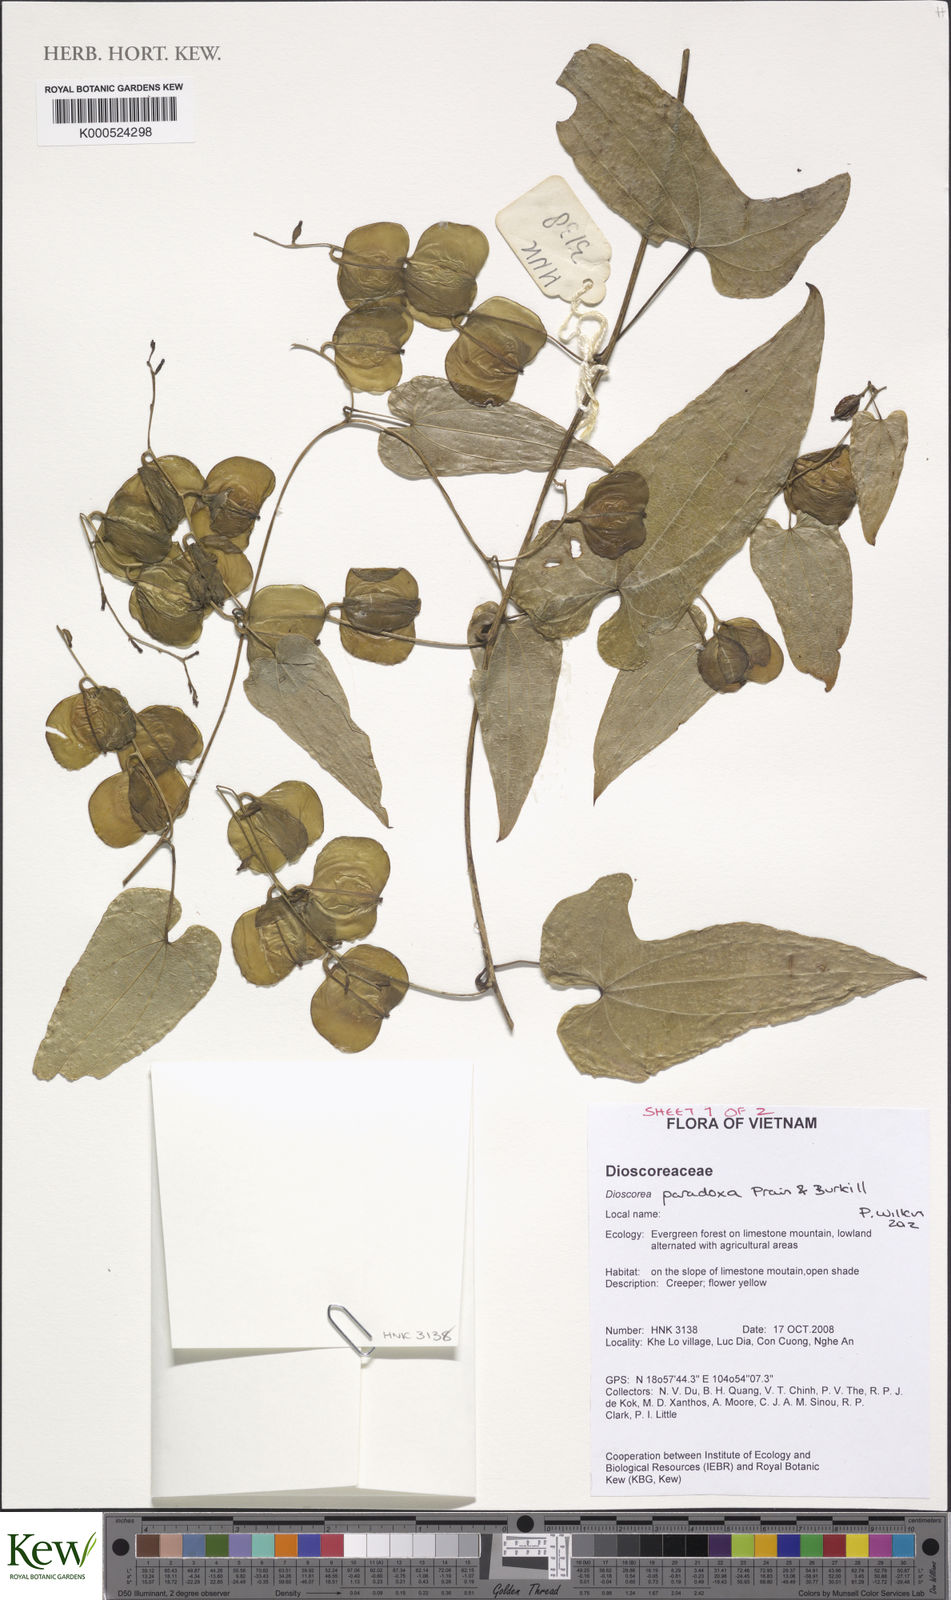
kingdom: Plantae
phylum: Tracheophyta
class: Liliopsida
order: Dioscoreales
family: Dioscoreaceae
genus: Dioscorea
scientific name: Dioscorea paradoxa
